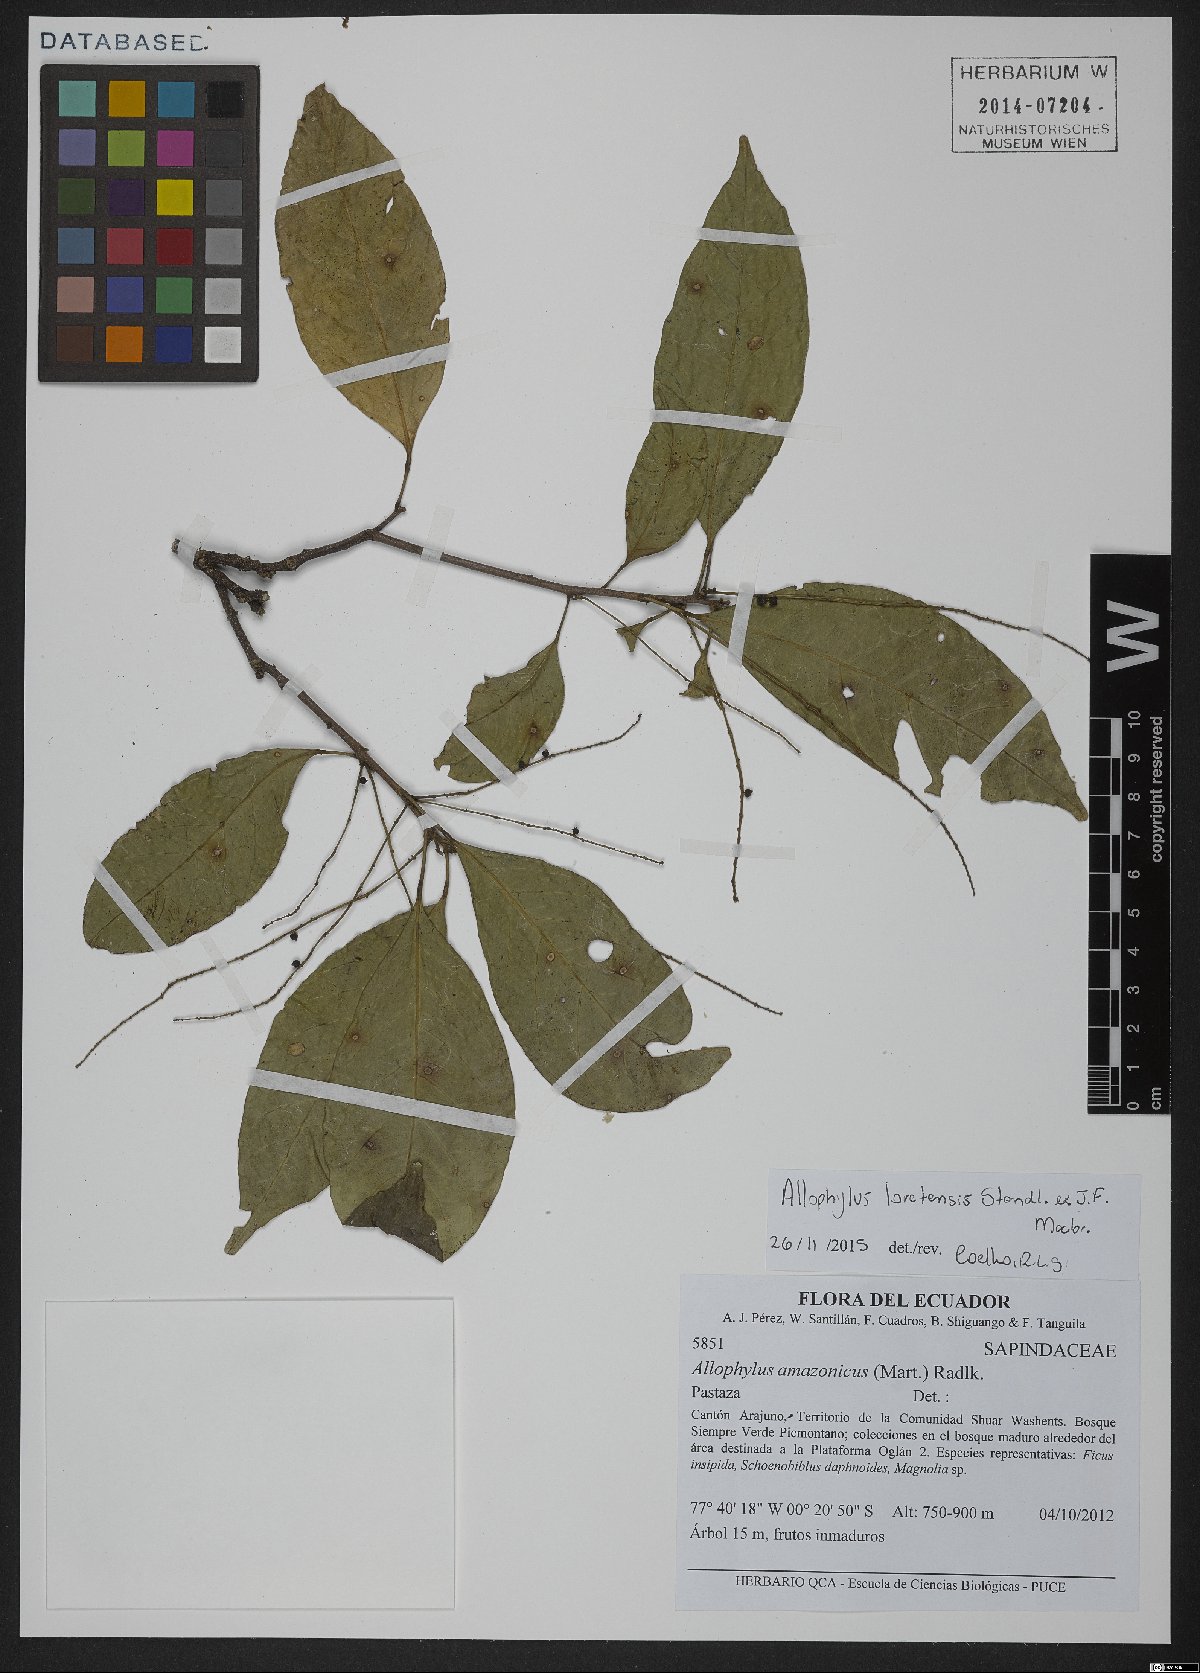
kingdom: Plantae
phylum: Tracheophyta
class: Magnoliopsida
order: Sapindales
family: Sapindaceae
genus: Allophylus
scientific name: Allophylus loretensis
